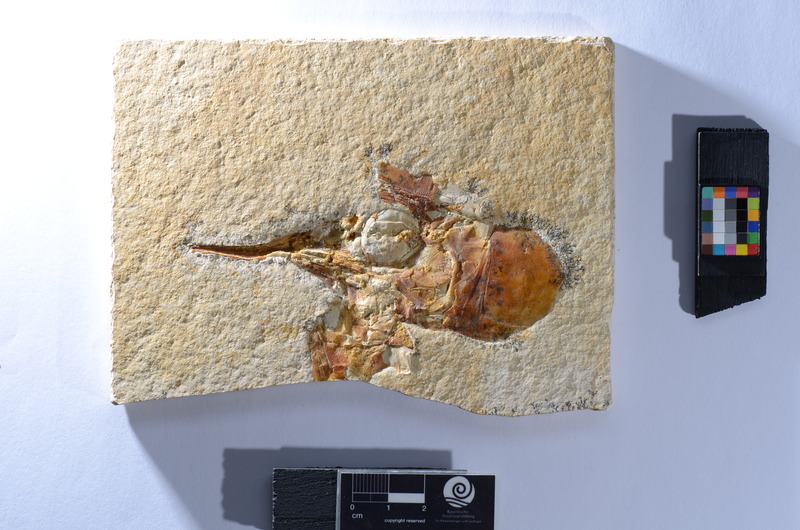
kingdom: Animalia
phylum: Chordata
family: Aspidorhynchidae
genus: Aspidorhynchus
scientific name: Aspidorhynchus
